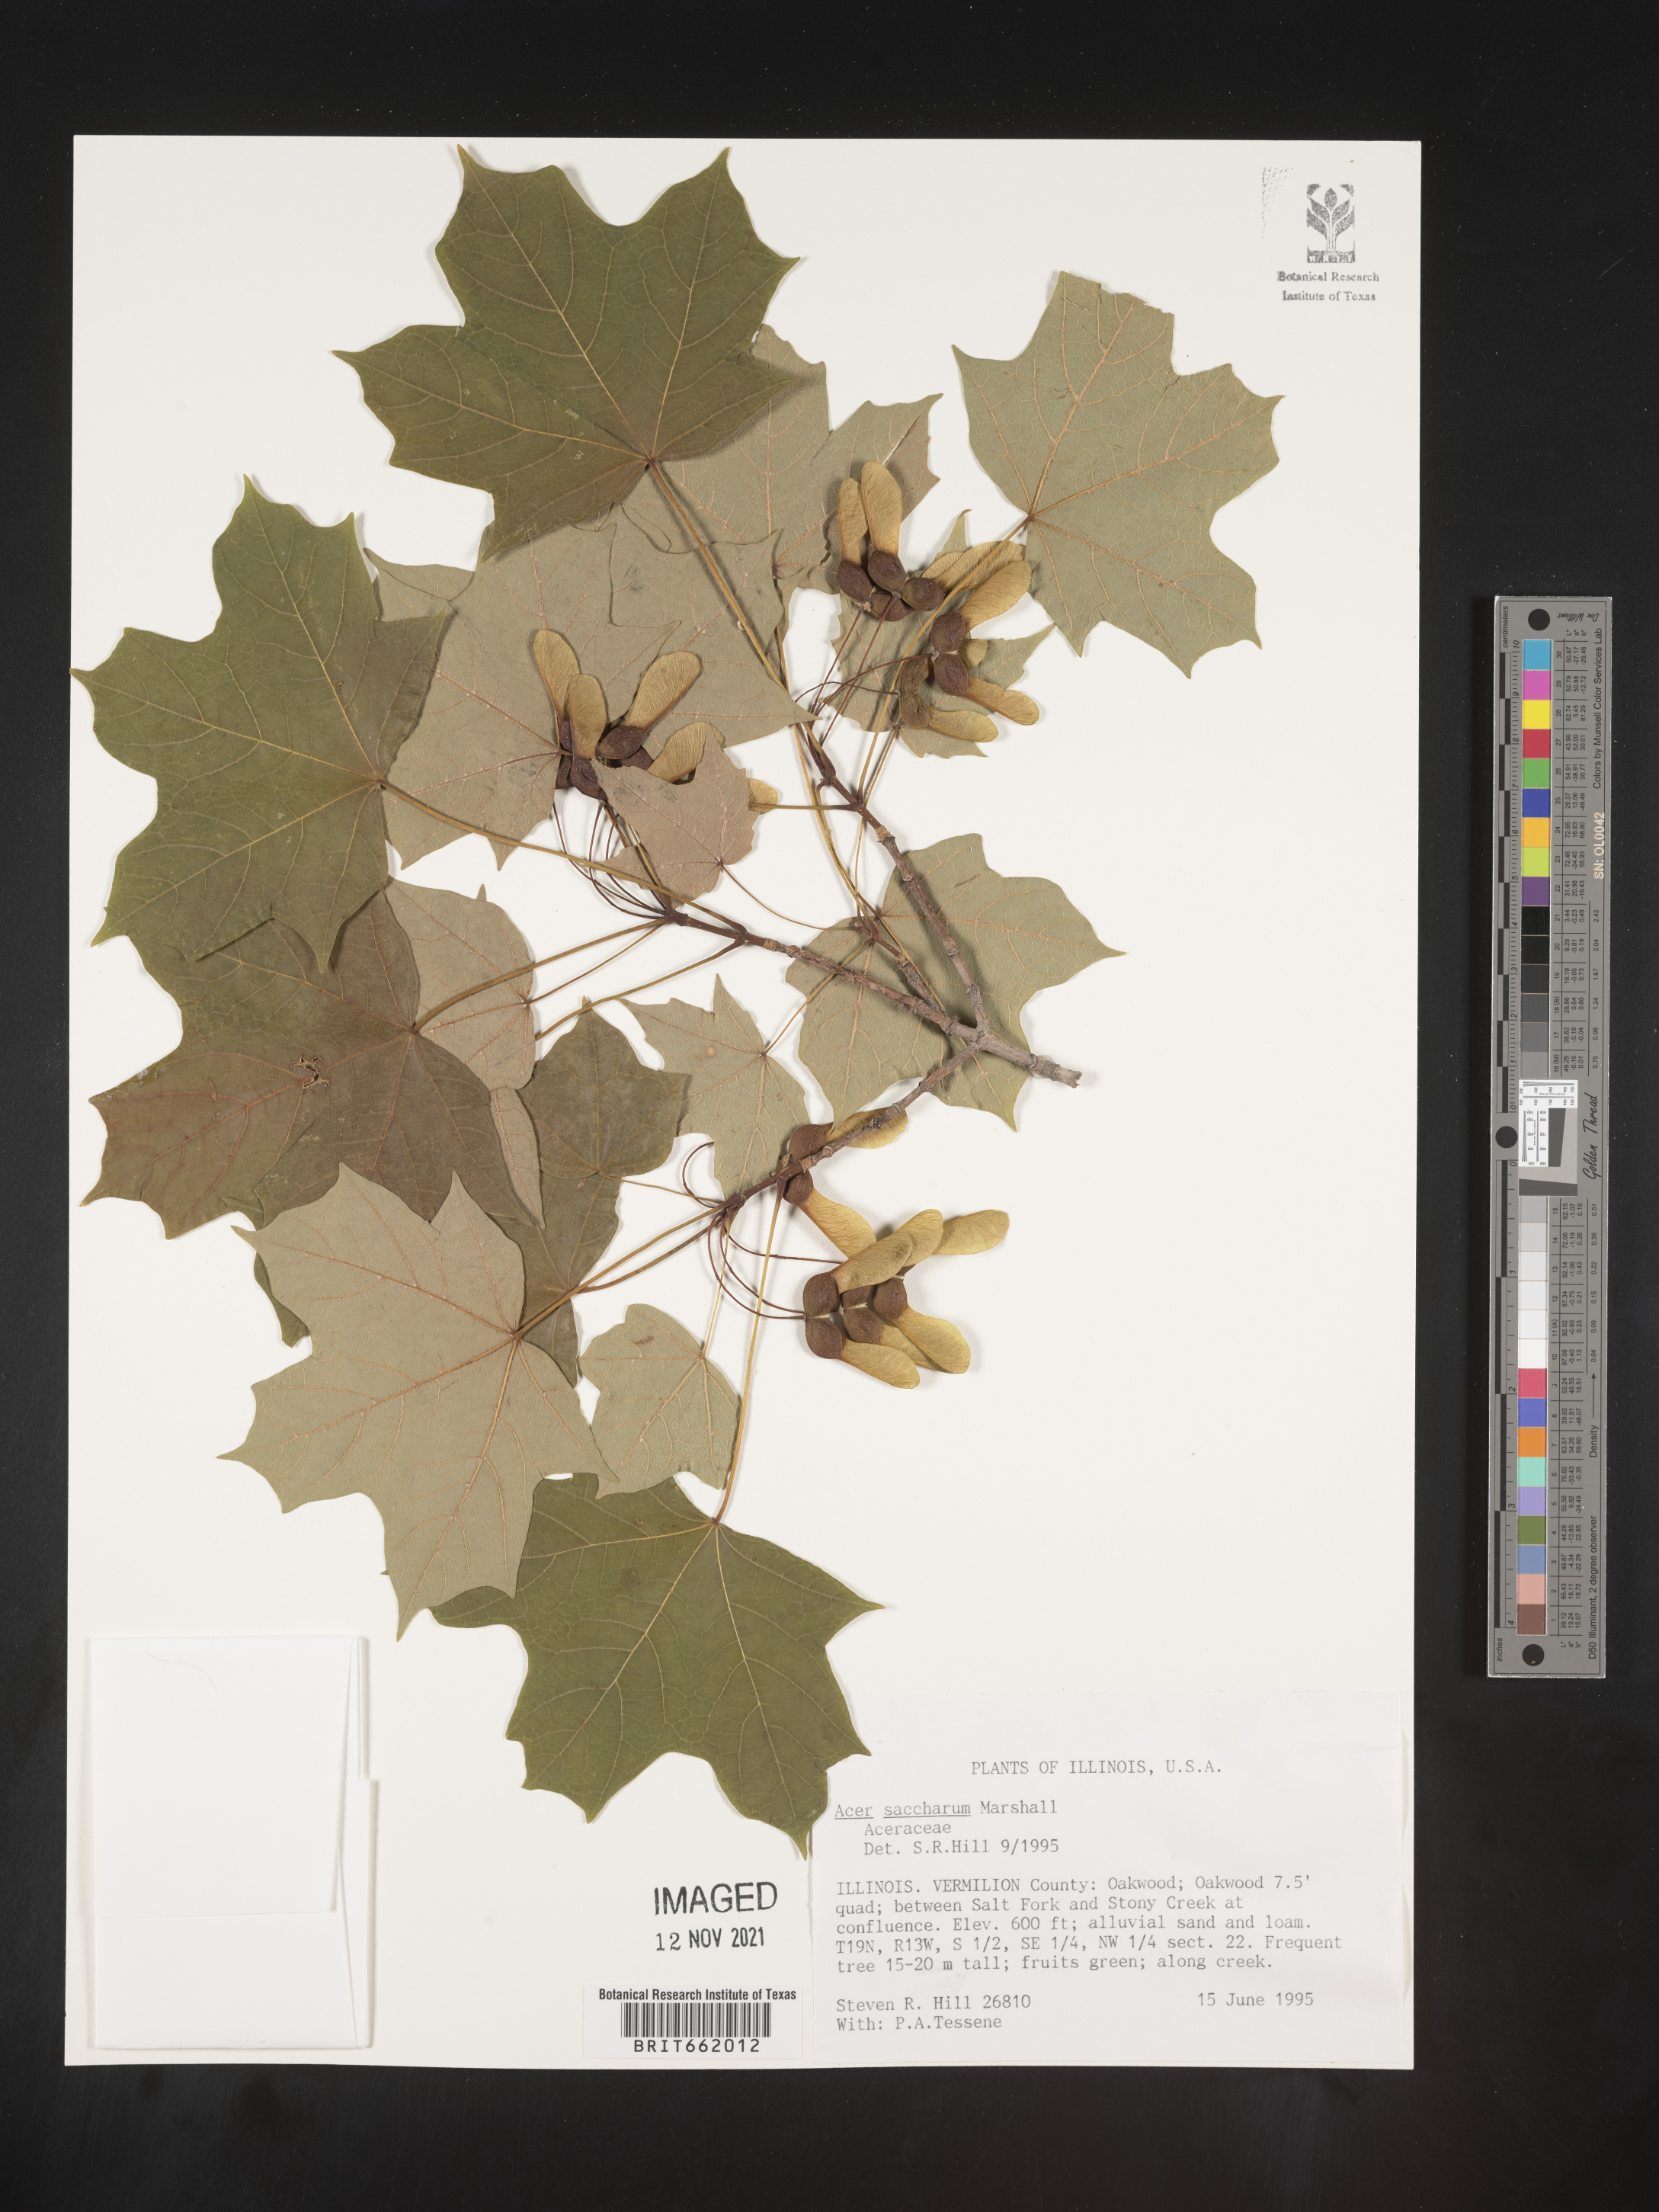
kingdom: Plantae
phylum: Tracheophyta
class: Magnoliopsida
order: Sapindales
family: Sapindaceae
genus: Acer
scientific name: Acer saccharum
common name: Sugar maple
